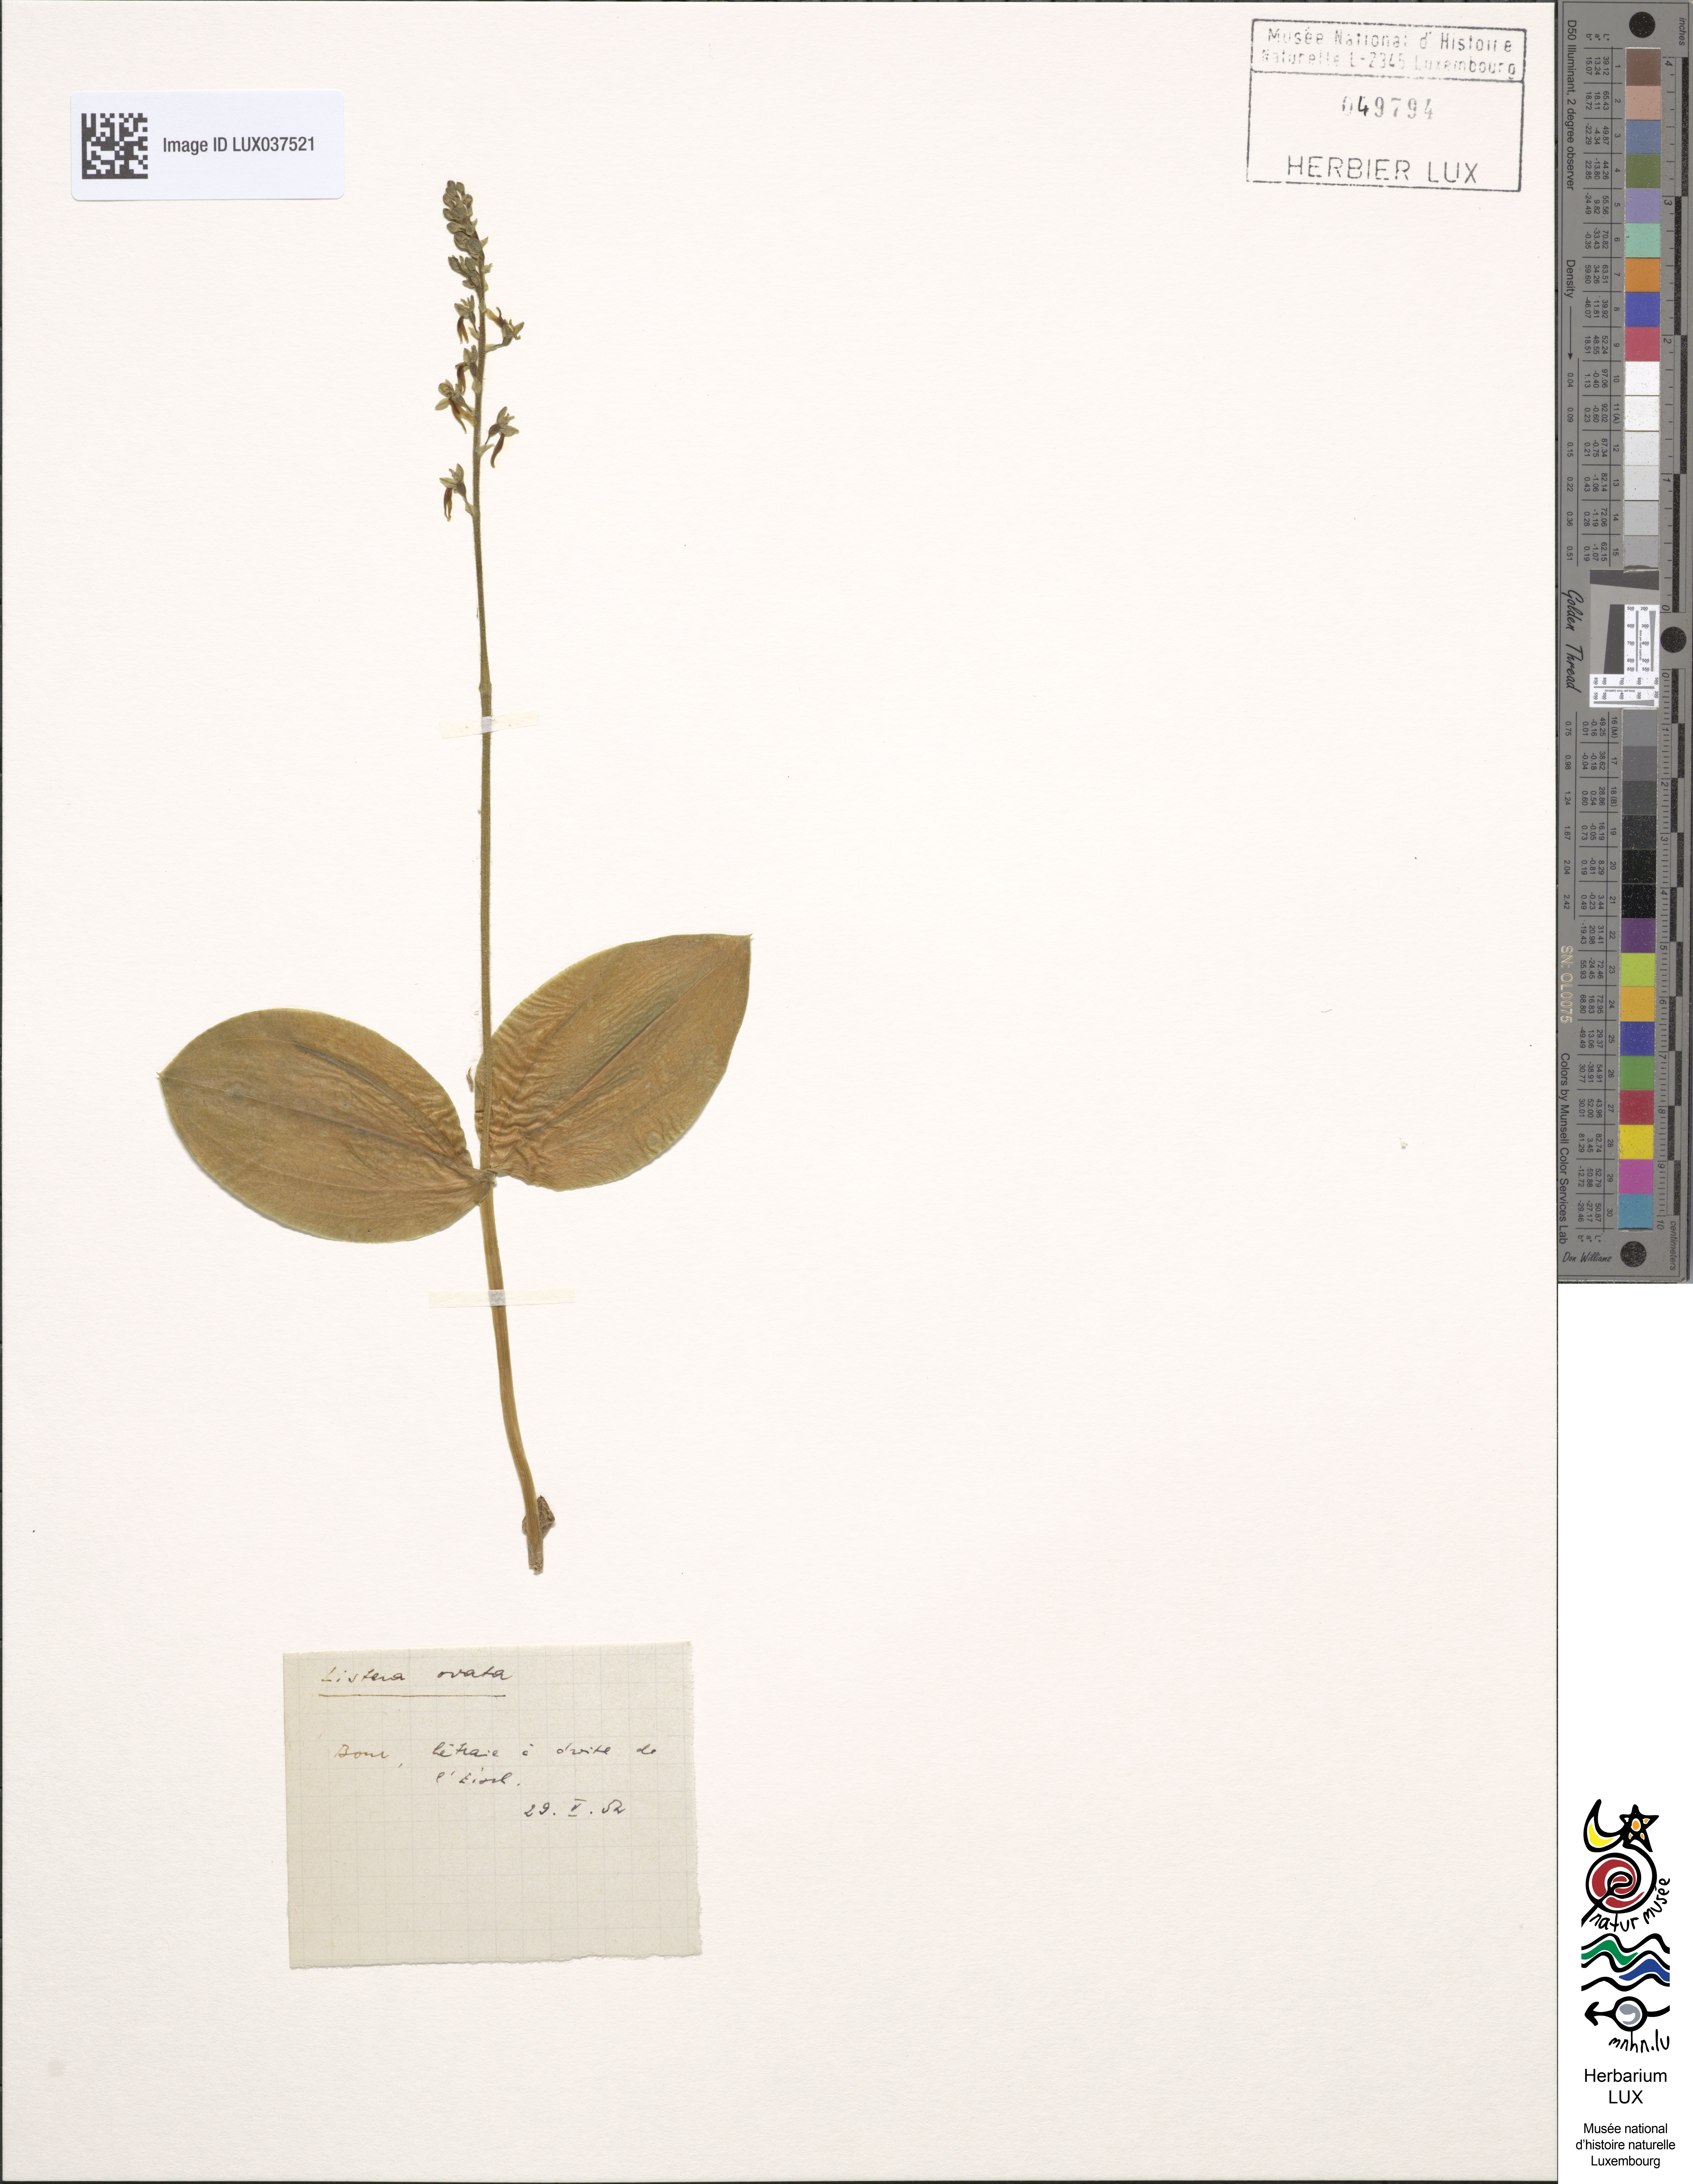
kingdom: Plantae
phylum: Tracheophyta
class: Liliopsida
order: Asparagales
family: Orchidaceae
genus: Neottia
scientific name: Neottia ovata
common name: Common twayblade
